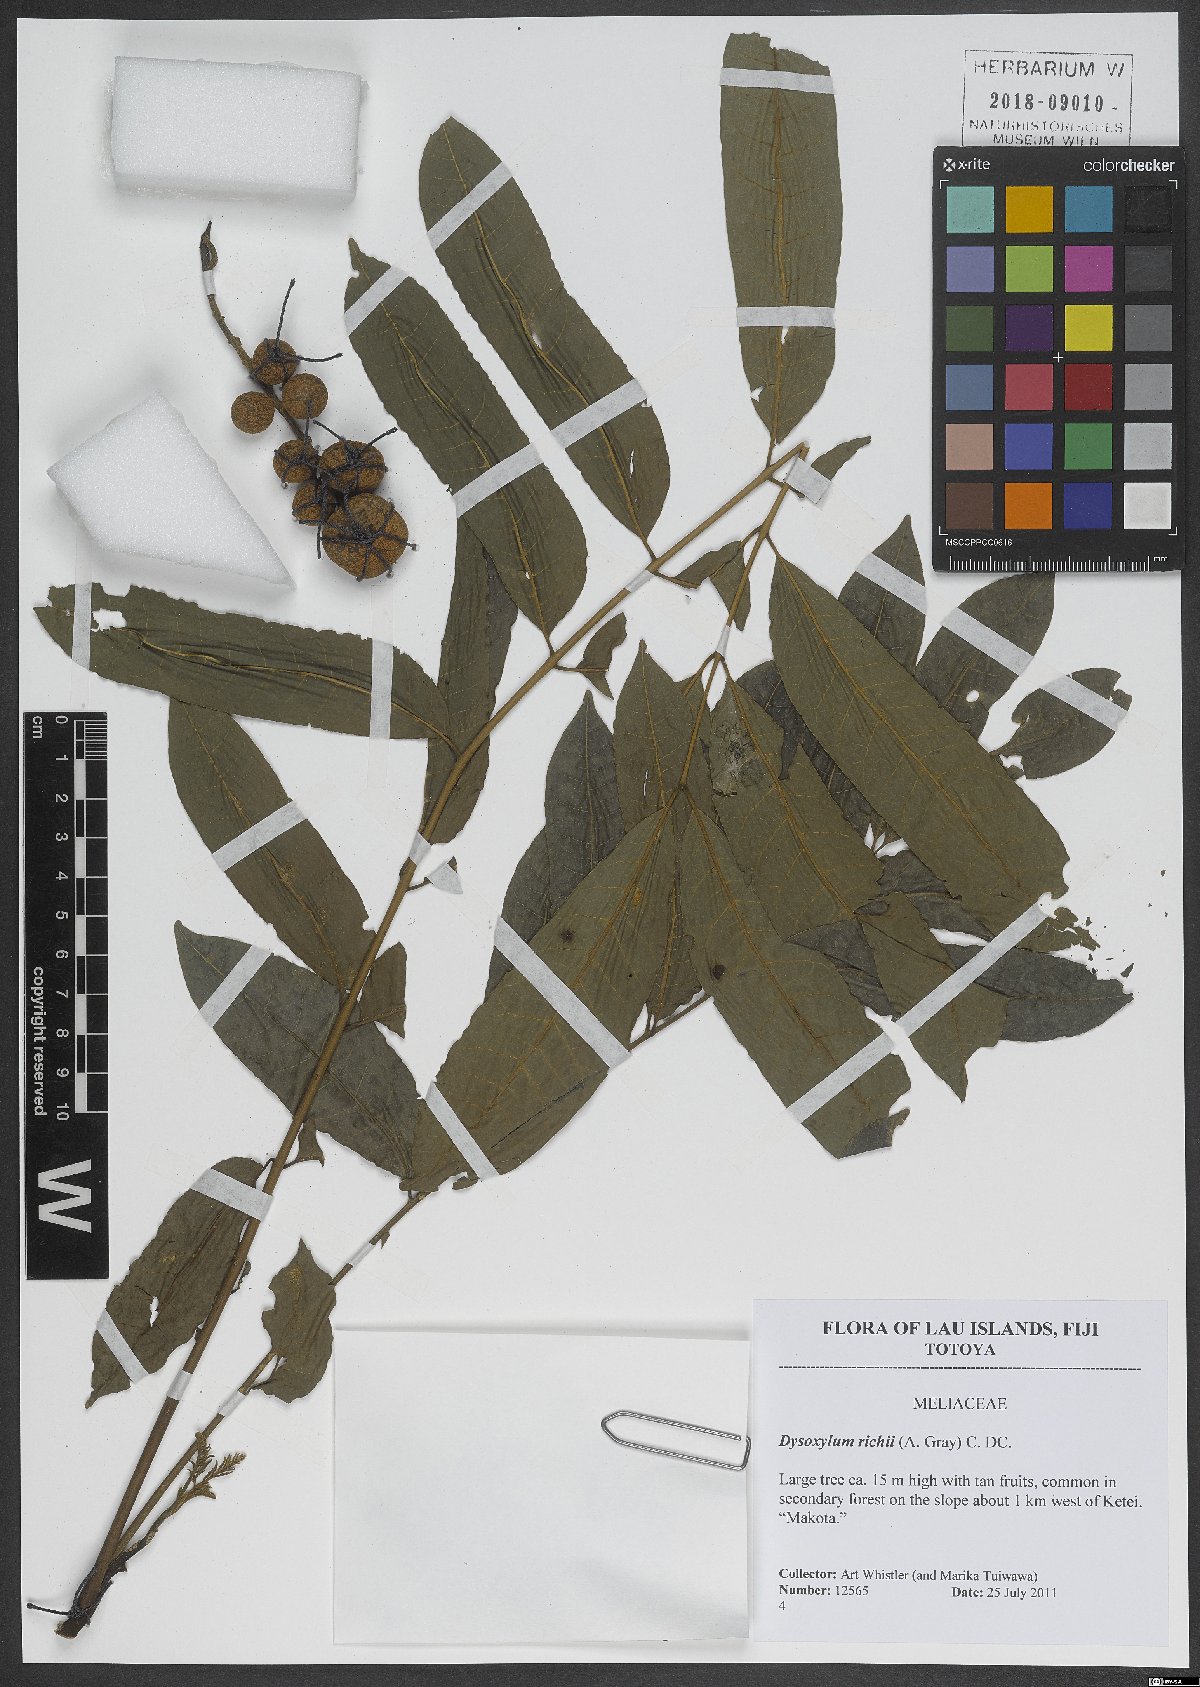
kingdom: Plantae
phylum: Tracheophyta
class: Magnoliopsida
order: Sapindales
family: Meliaceae
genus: Didymocheton
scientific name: Didymocheton alliaceus
